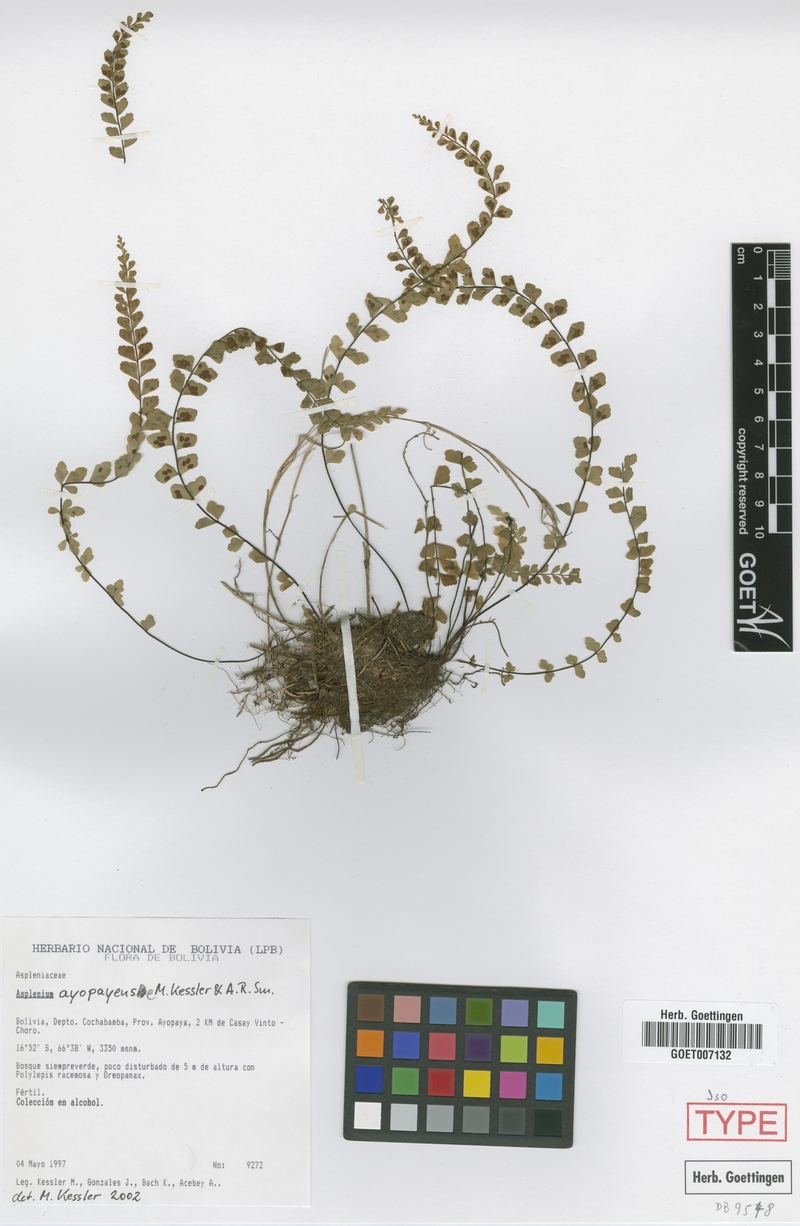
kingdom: Plantae
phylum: Tracheophyta
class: Polypodiopsida
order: Polypodiales
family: Aspleniaceae
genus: Asplenium
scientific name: Asplenium ayopayense
